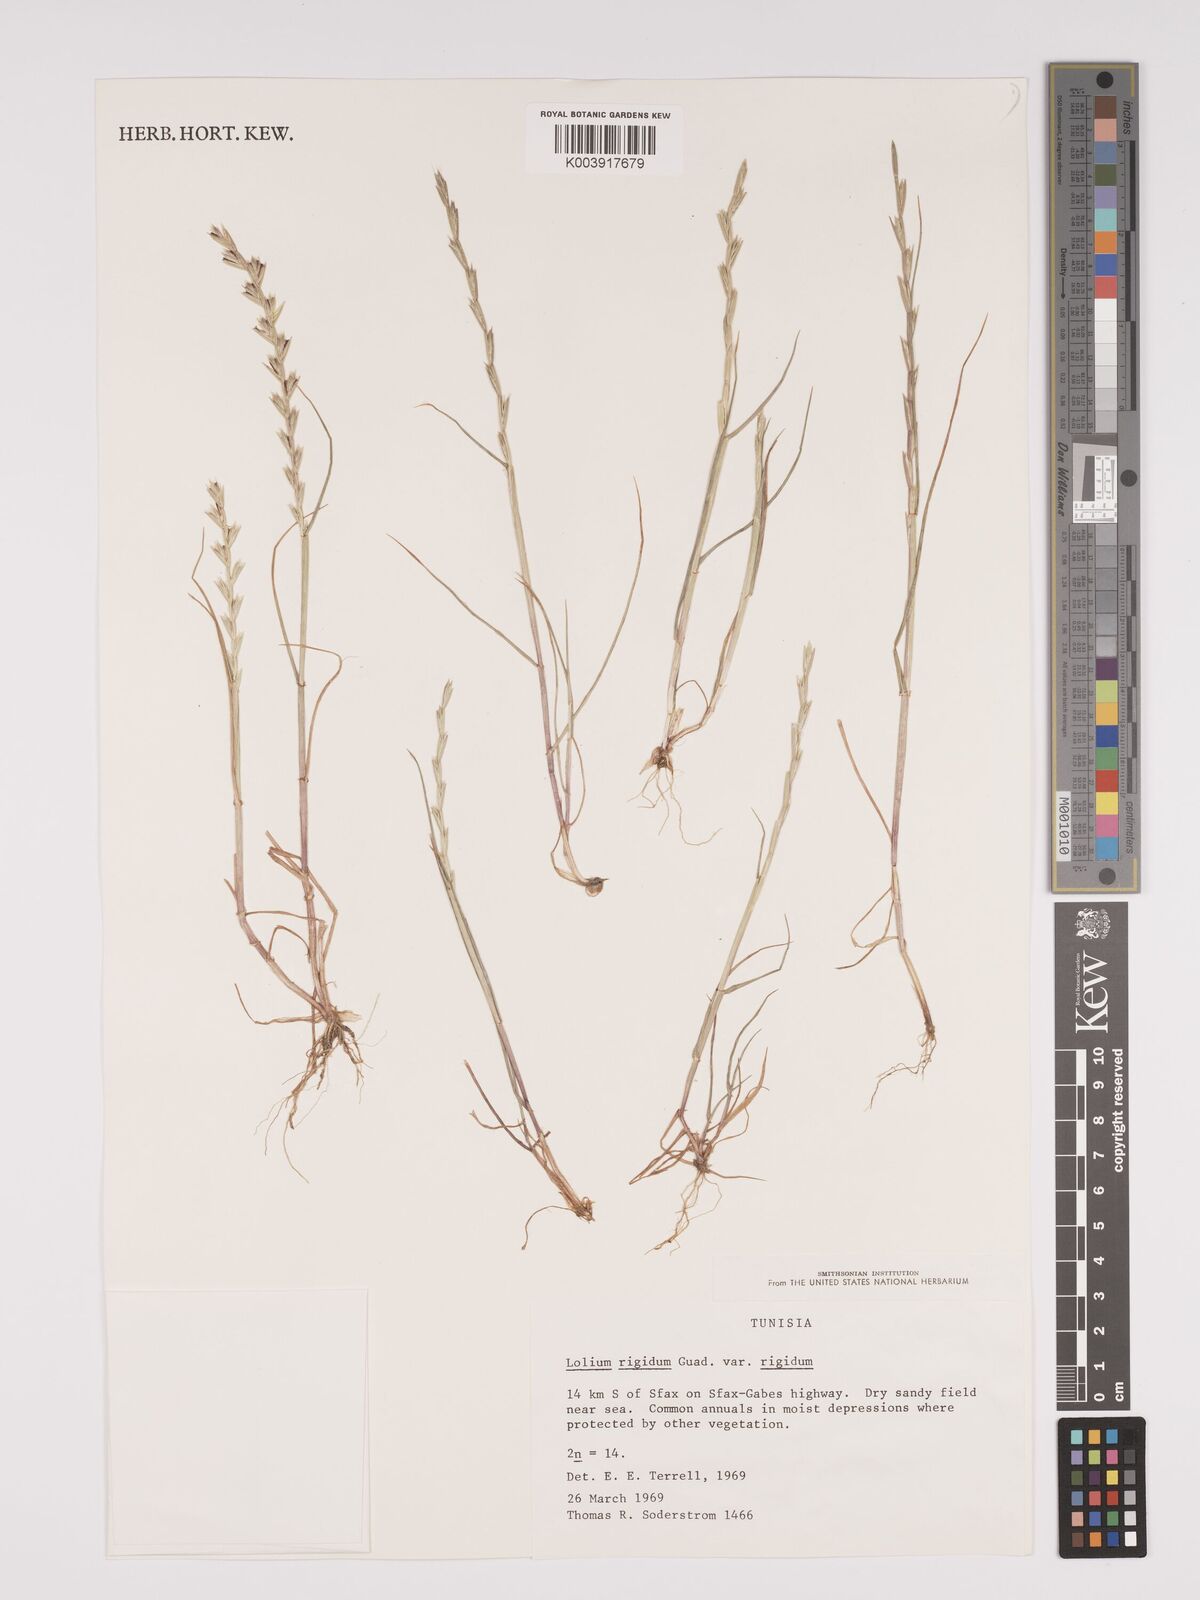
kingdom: Plantae
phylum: Tracheophyta
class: Liliopsida
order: Poales
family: Poaceae
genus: Lolium
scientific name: Lolium rigidum
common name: Wimmera ryegrass
